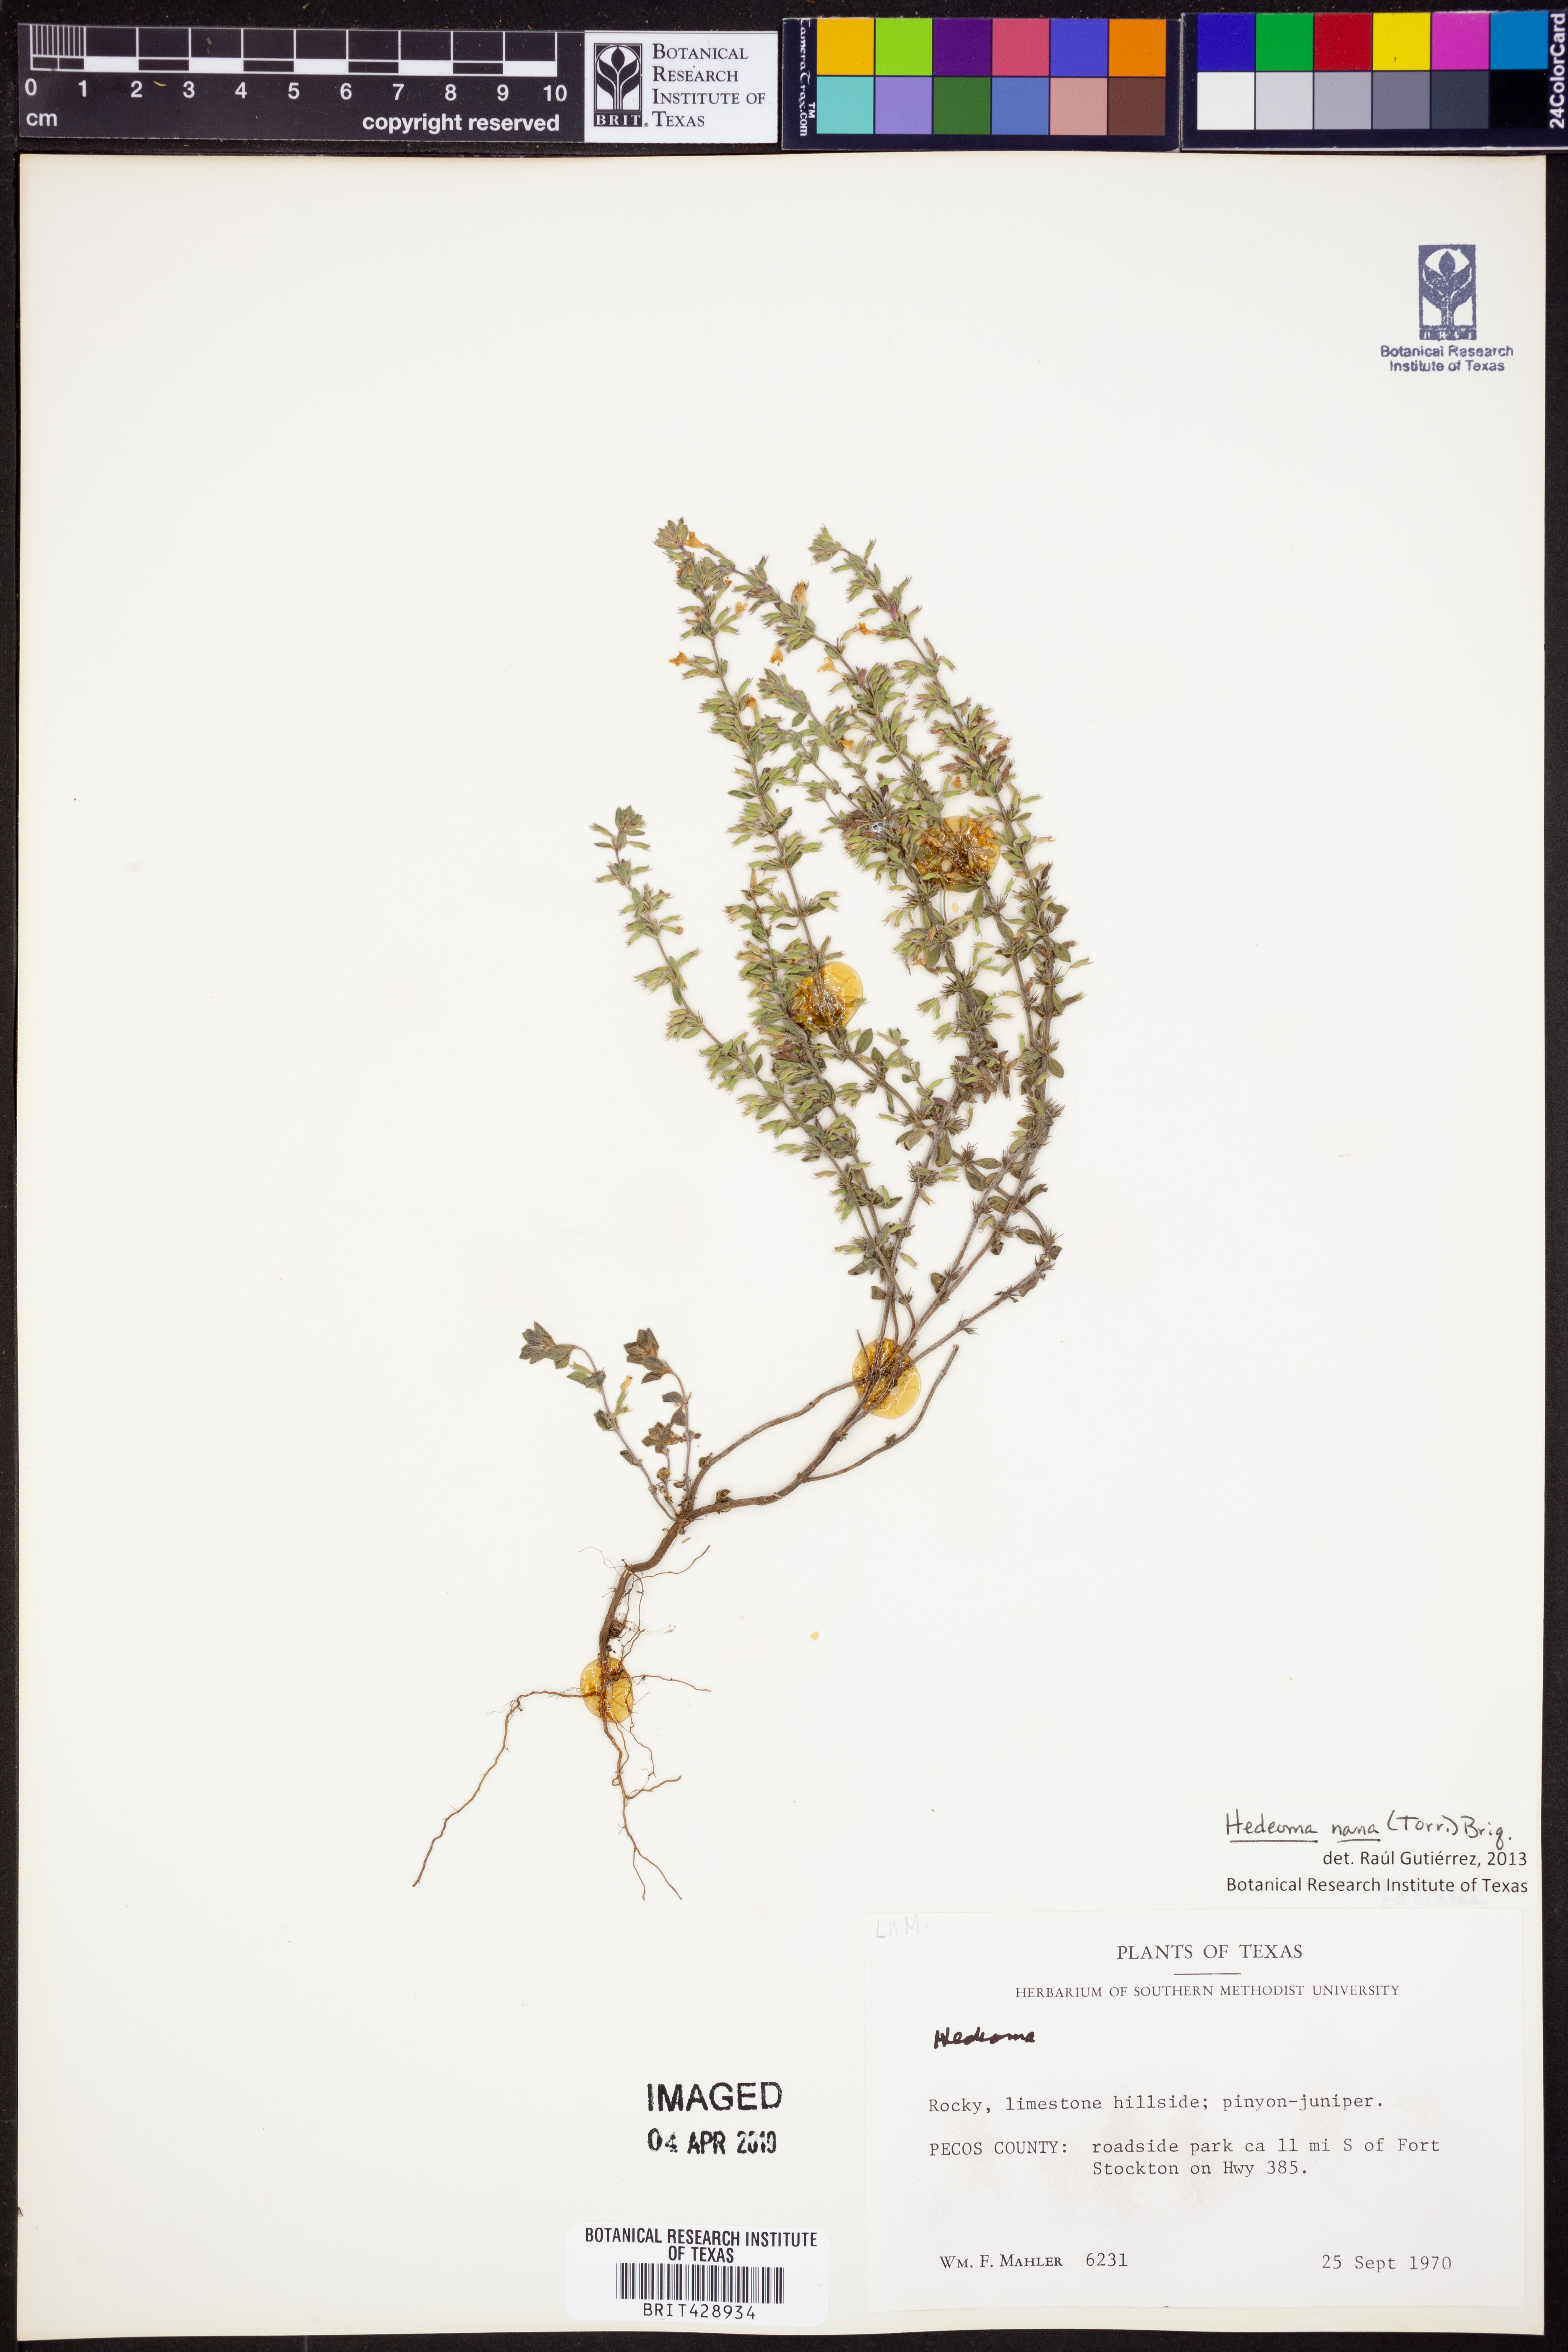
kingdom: Plantae
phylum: Tracheophyta
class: Magnoliopsida
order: Lamiales
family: Lamiaceae
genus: Hedeoma
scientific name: Hedeoma nana
